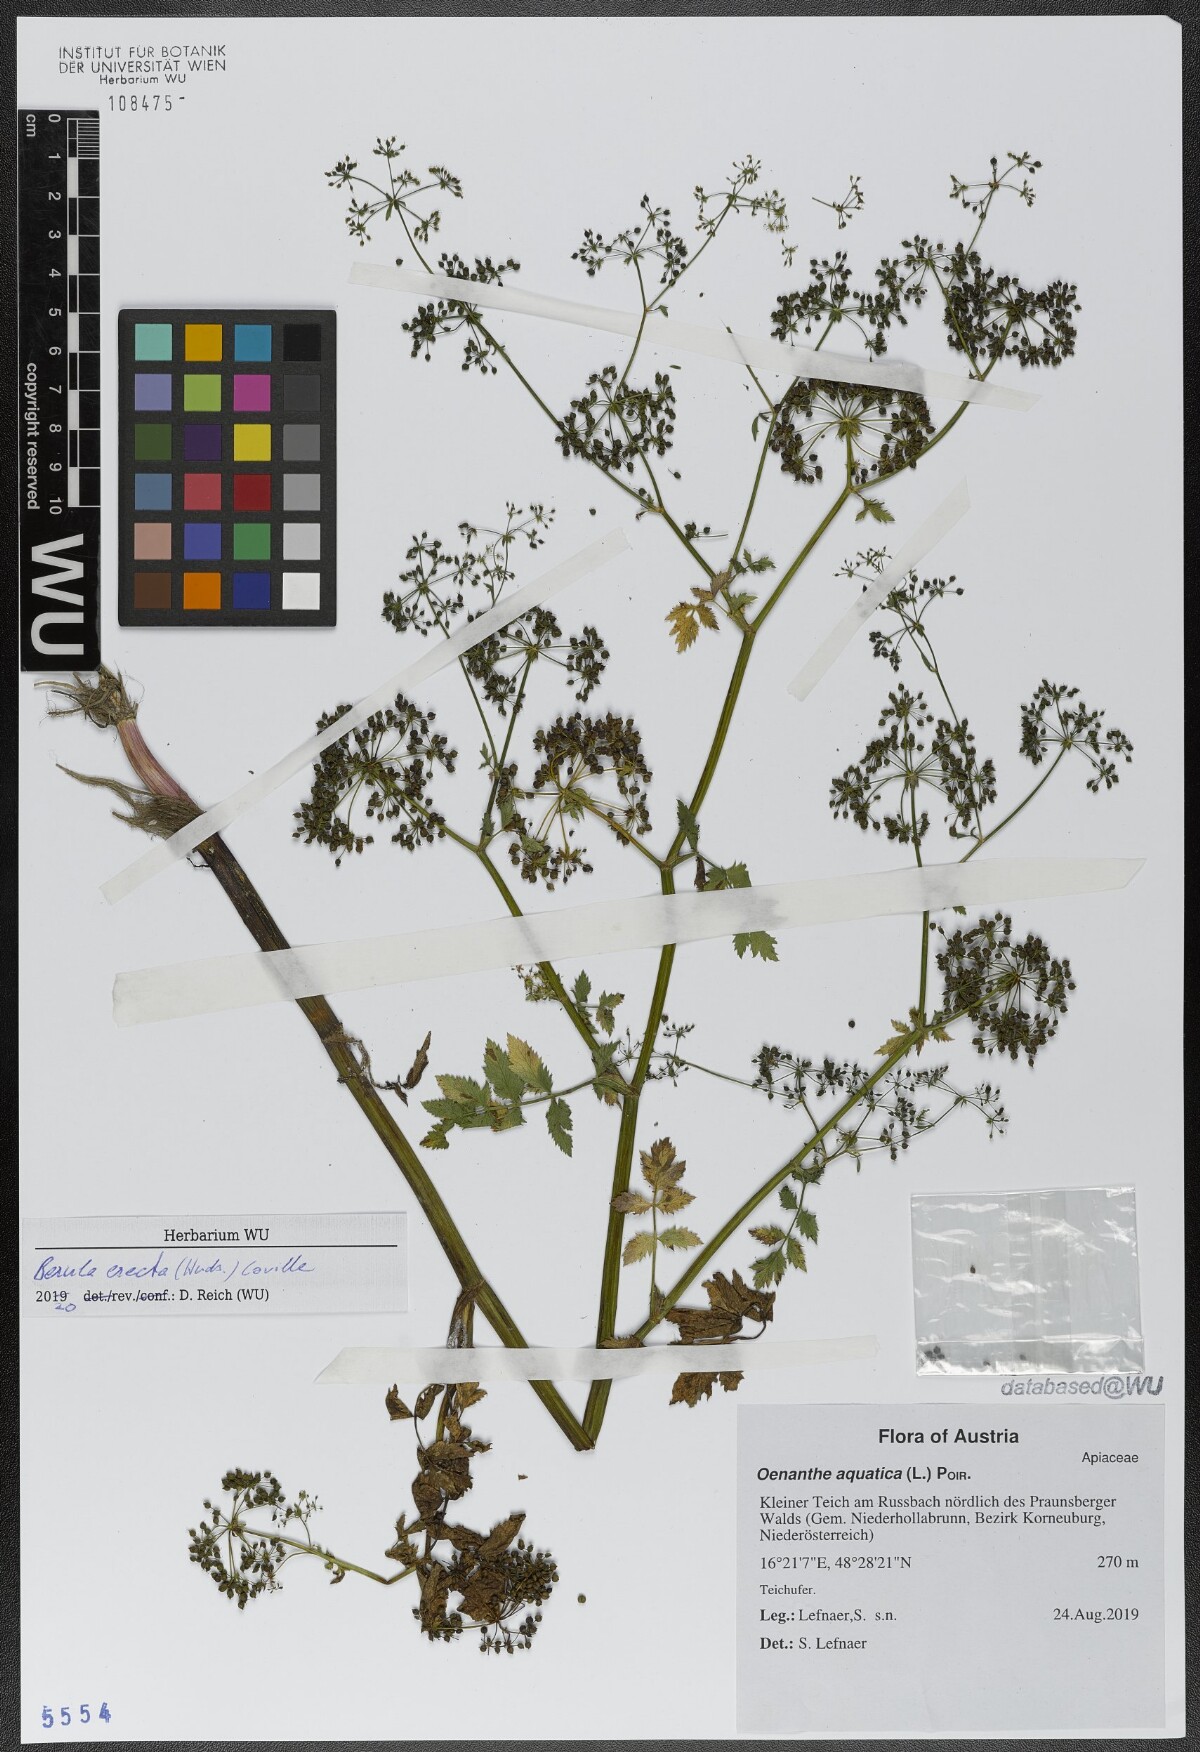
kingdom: Plantae
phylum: Tracheophyta
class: Magnoliopsida
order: Apiales
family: Apiaceae
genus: Berula
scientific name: Berula erecta
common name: Lesser water-parsnip
